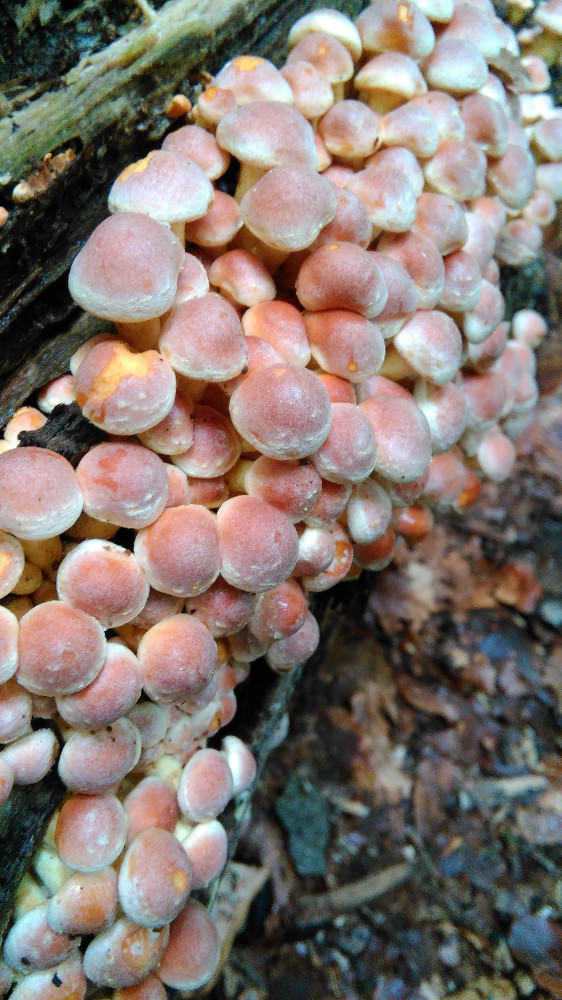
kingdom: Fungi
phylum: Basidiomycota
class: Agaricomycetes
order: Agaricales
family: Strophariaceae
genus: Hypholoma
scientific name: Hypholoma fasciculare
